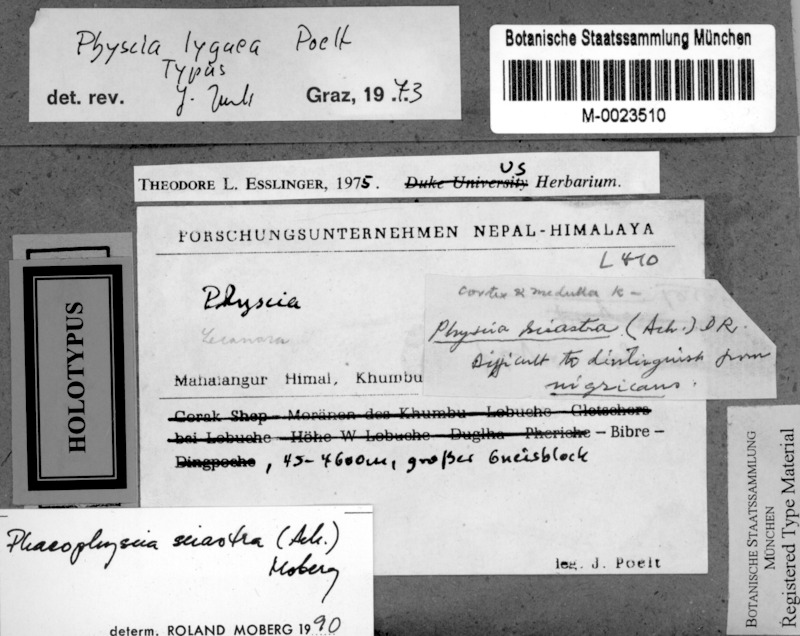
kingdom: Fungi
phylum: Ascomycota
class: Lecanoromycetes
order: Caliciales
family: Physciaceae
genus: Phaeophyscia
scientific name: Phaeophyscia sciastra
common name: Dark shadow lichen
